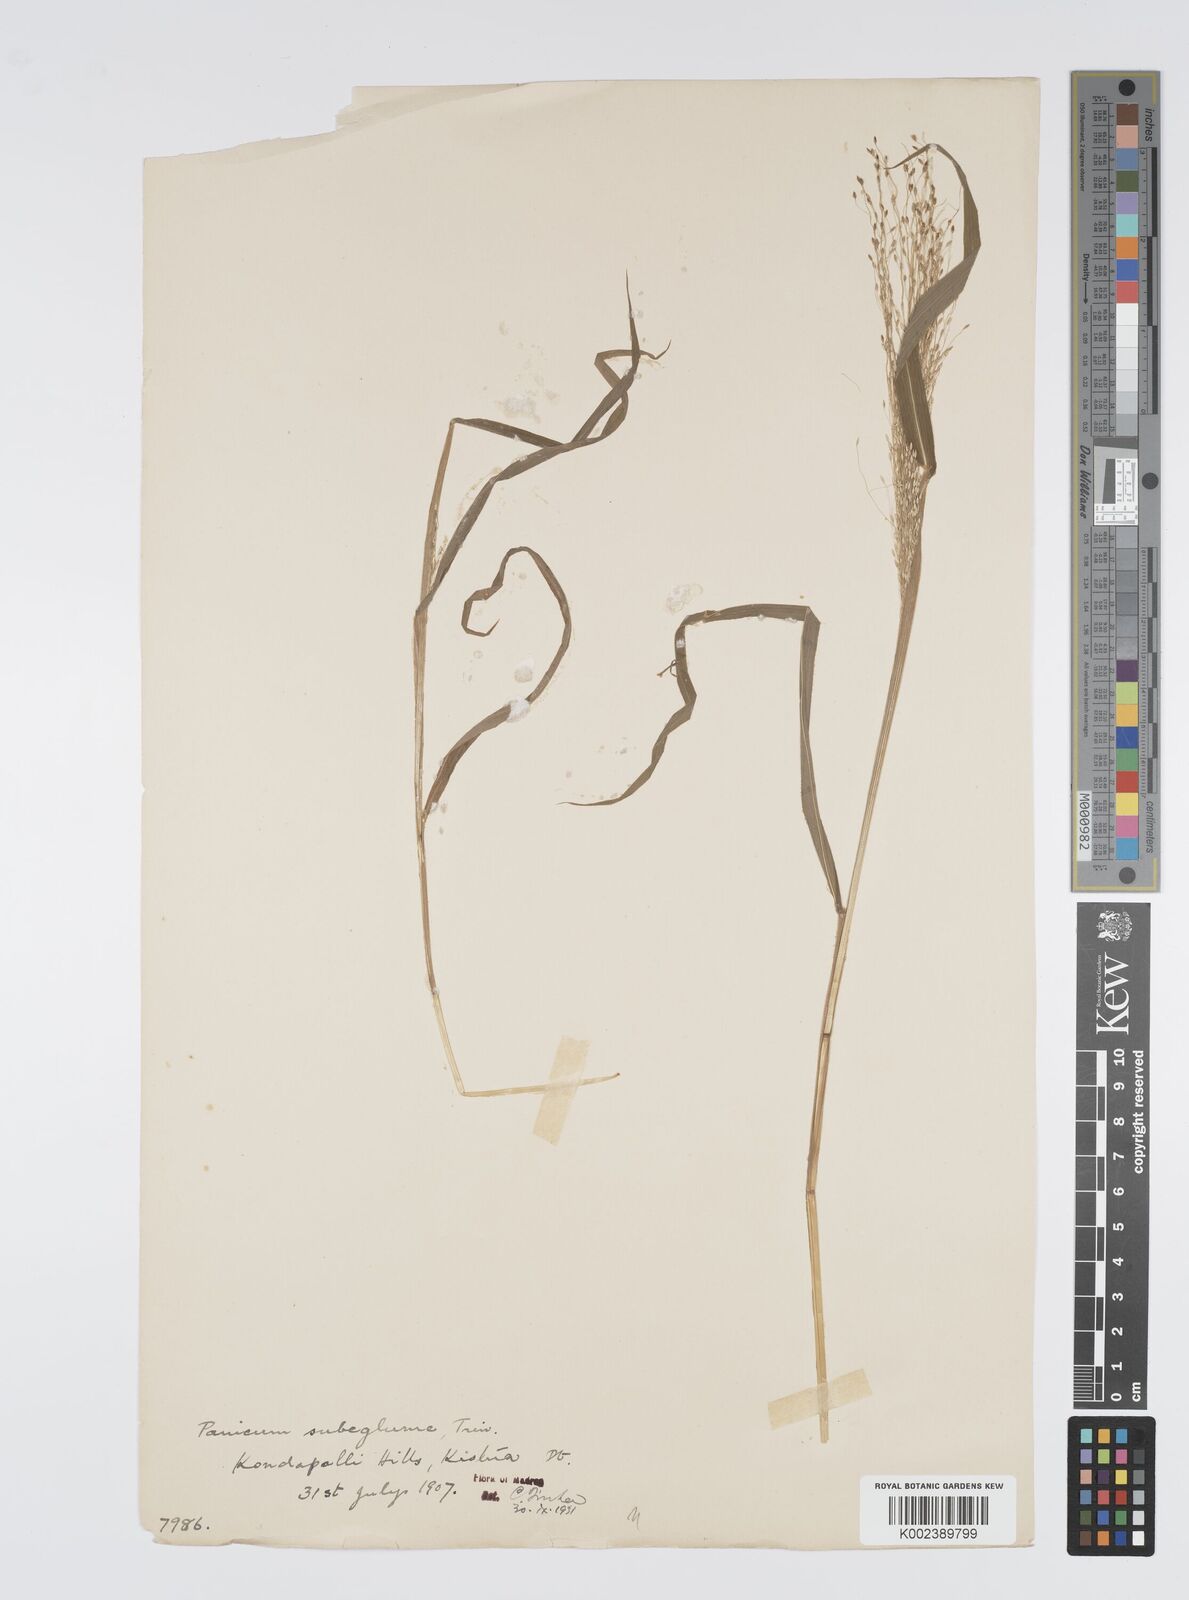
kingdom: Plantae
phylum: Tracheophyta
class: Liliopsida
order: Poales
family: Poaceae
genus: Digitaria
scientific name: Digitaria tomentosa
